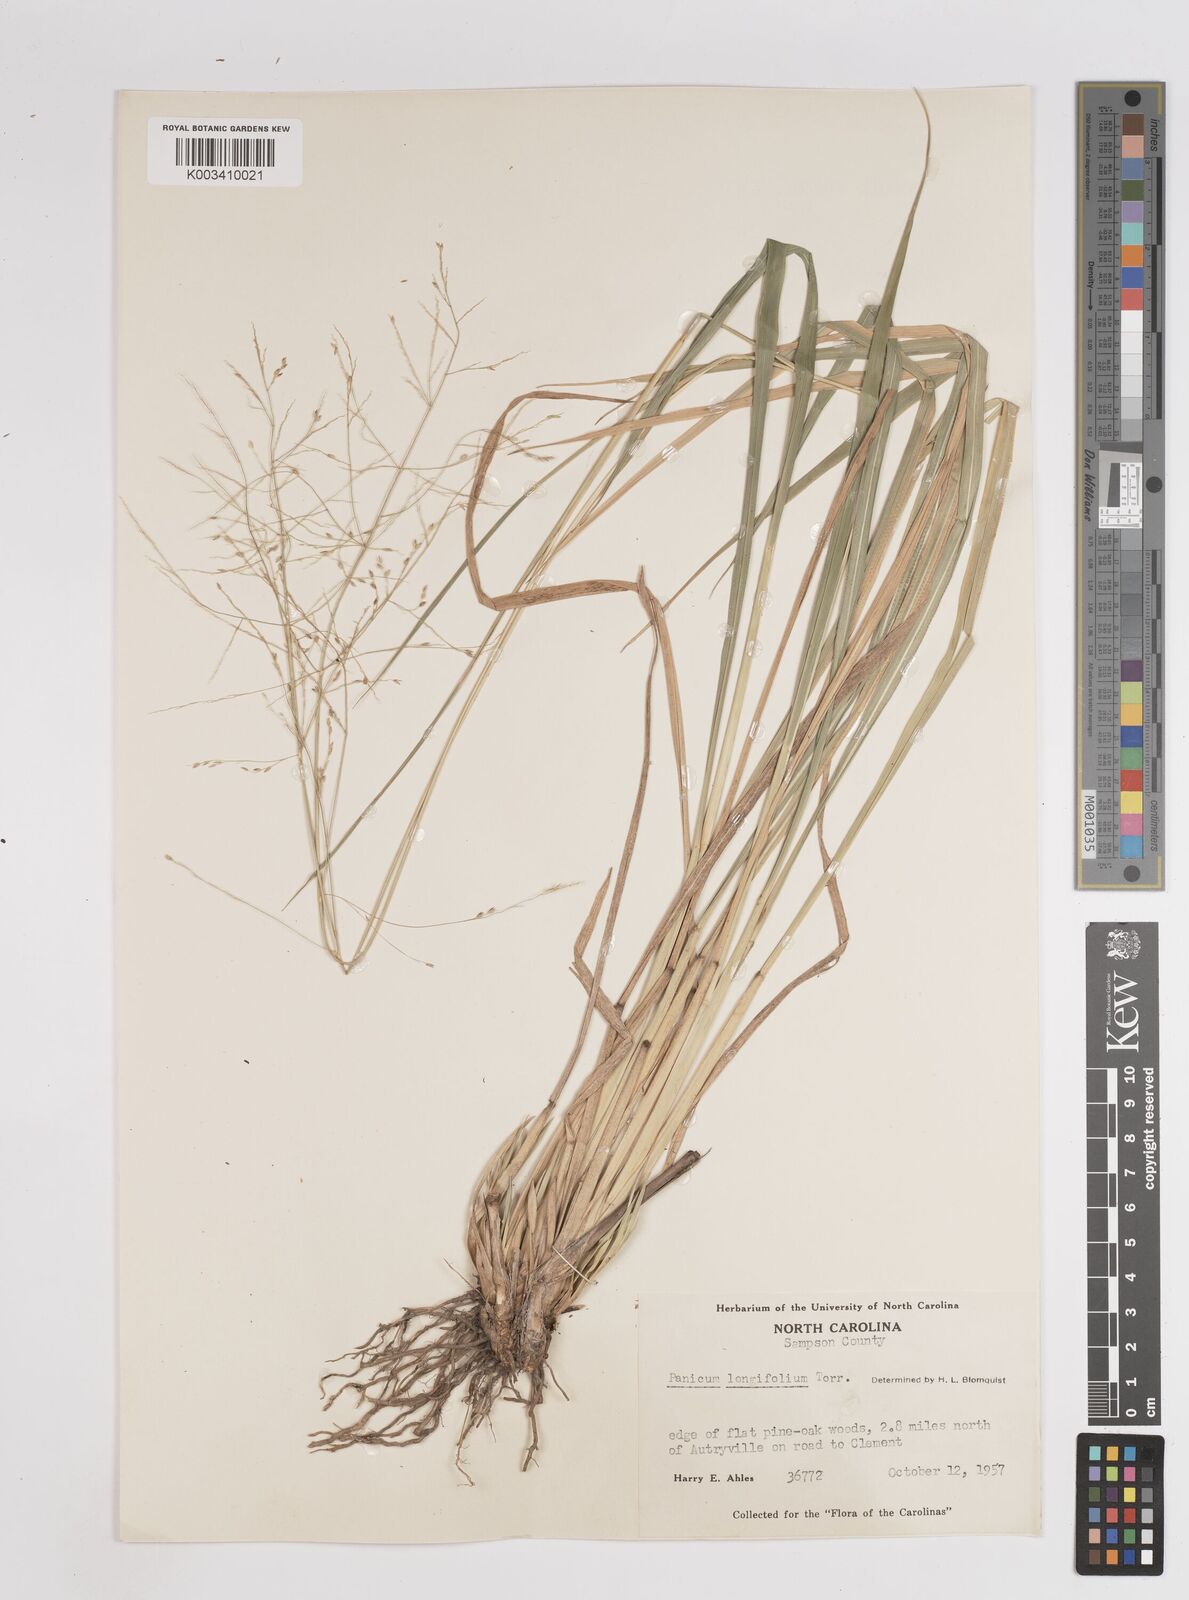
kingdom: Plantae
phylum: Tracheophyta
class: Liliopsida
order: Poales
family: Poaceae
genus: Coleataenia
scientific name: Coleataenia longifolia
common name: Long-leaved panicgrass
